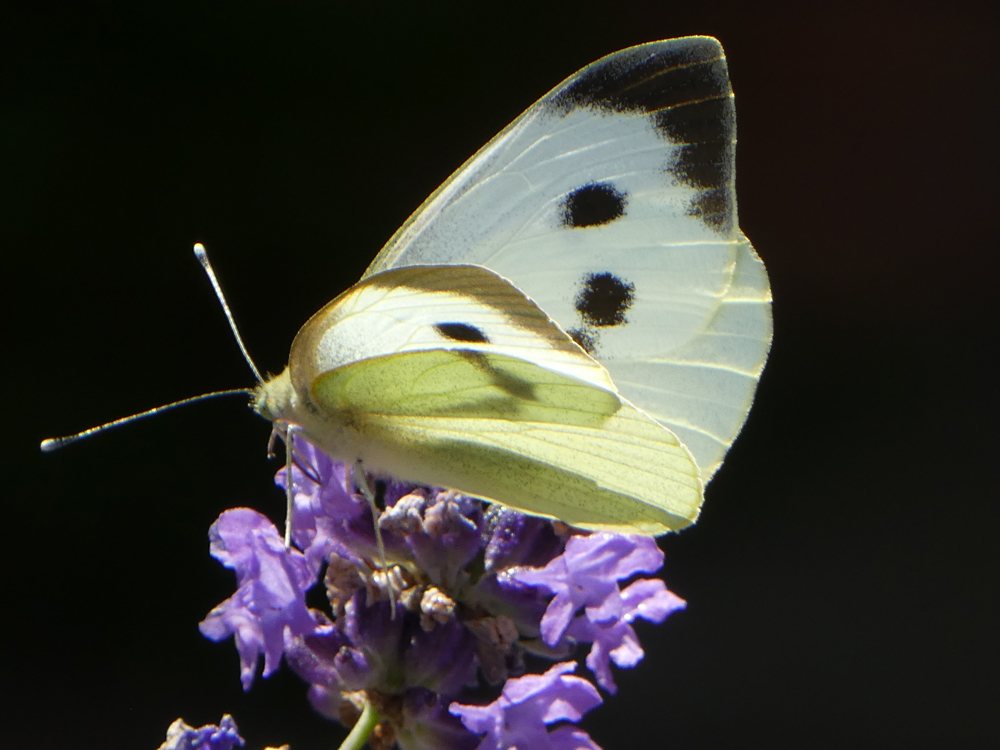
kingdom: Animalia
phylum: Arthropoda
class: Insecta
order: Lepidoptera
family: Pieridae
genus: Pieris
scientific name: Pieris brassicae
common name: Large white
